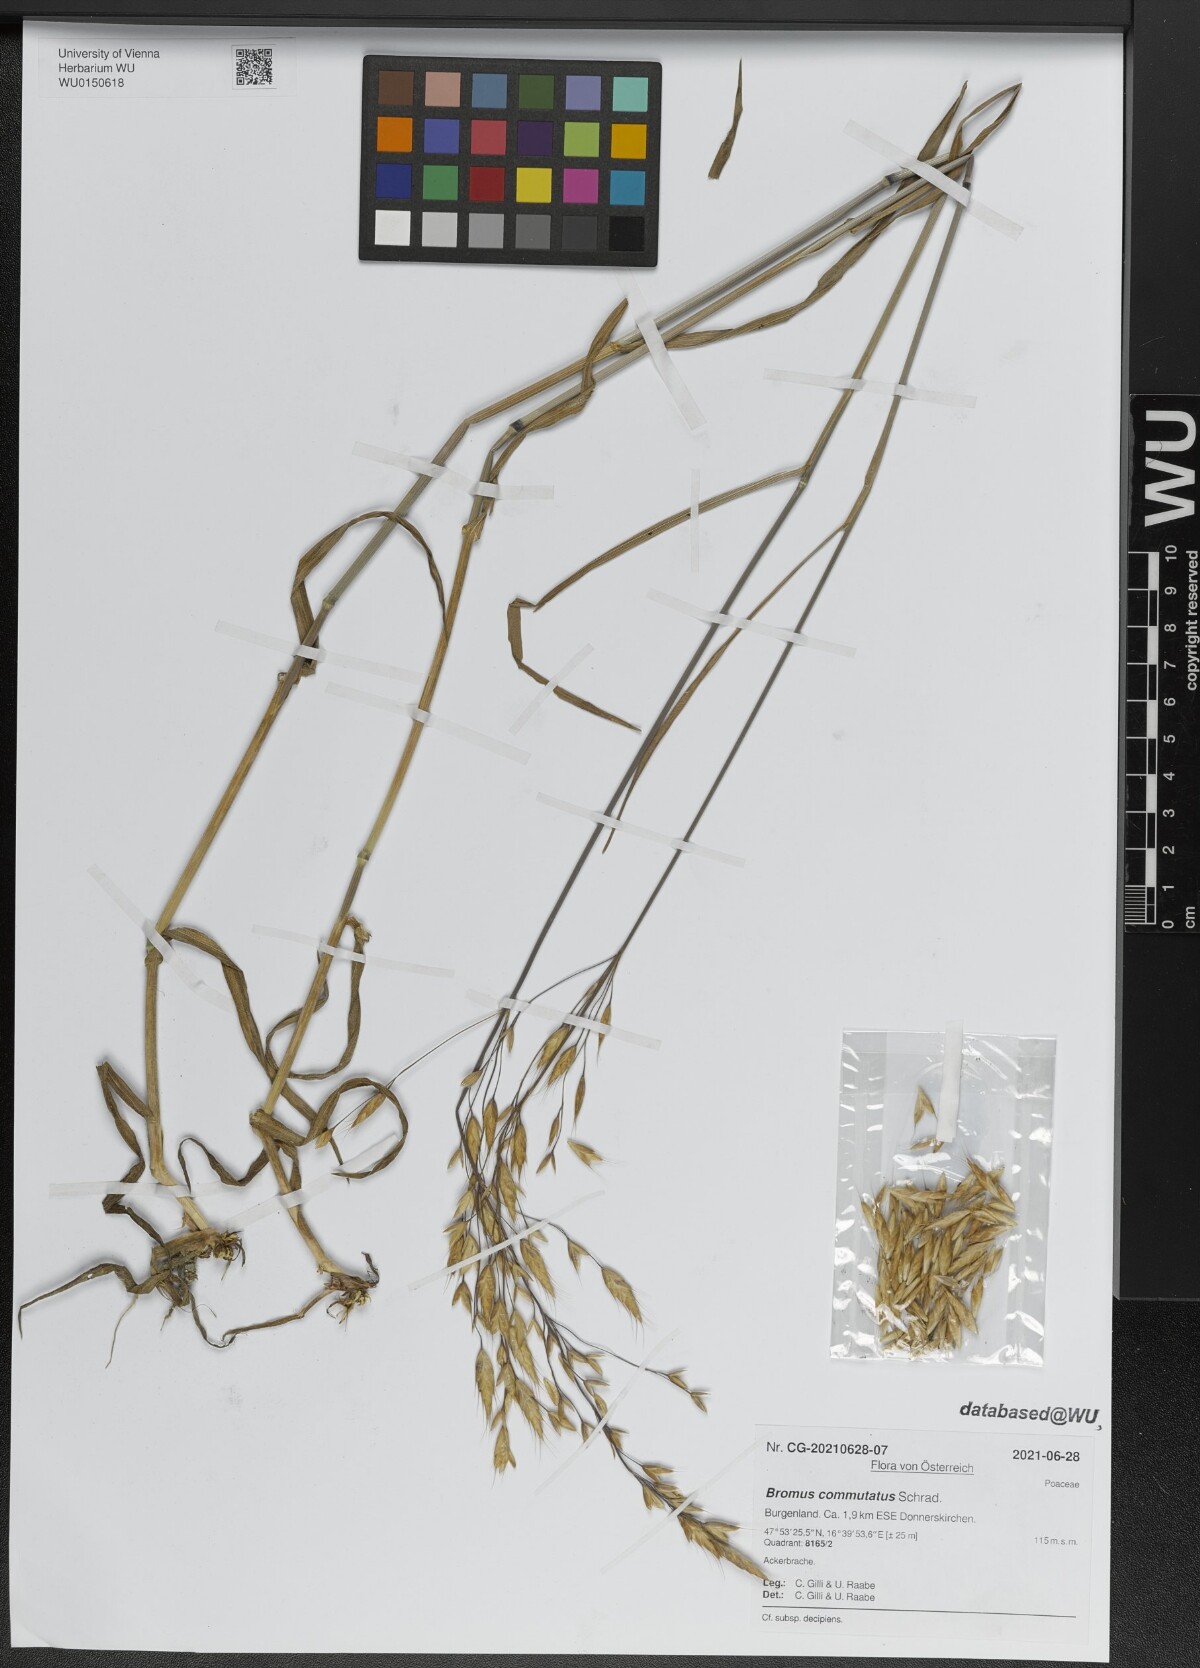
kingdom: Plantae
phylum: Tracheophyta
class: Liliopsida
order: Poales
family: Poaceae
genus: Bromus
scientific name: Bromus commutatus
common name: Meadow brome
